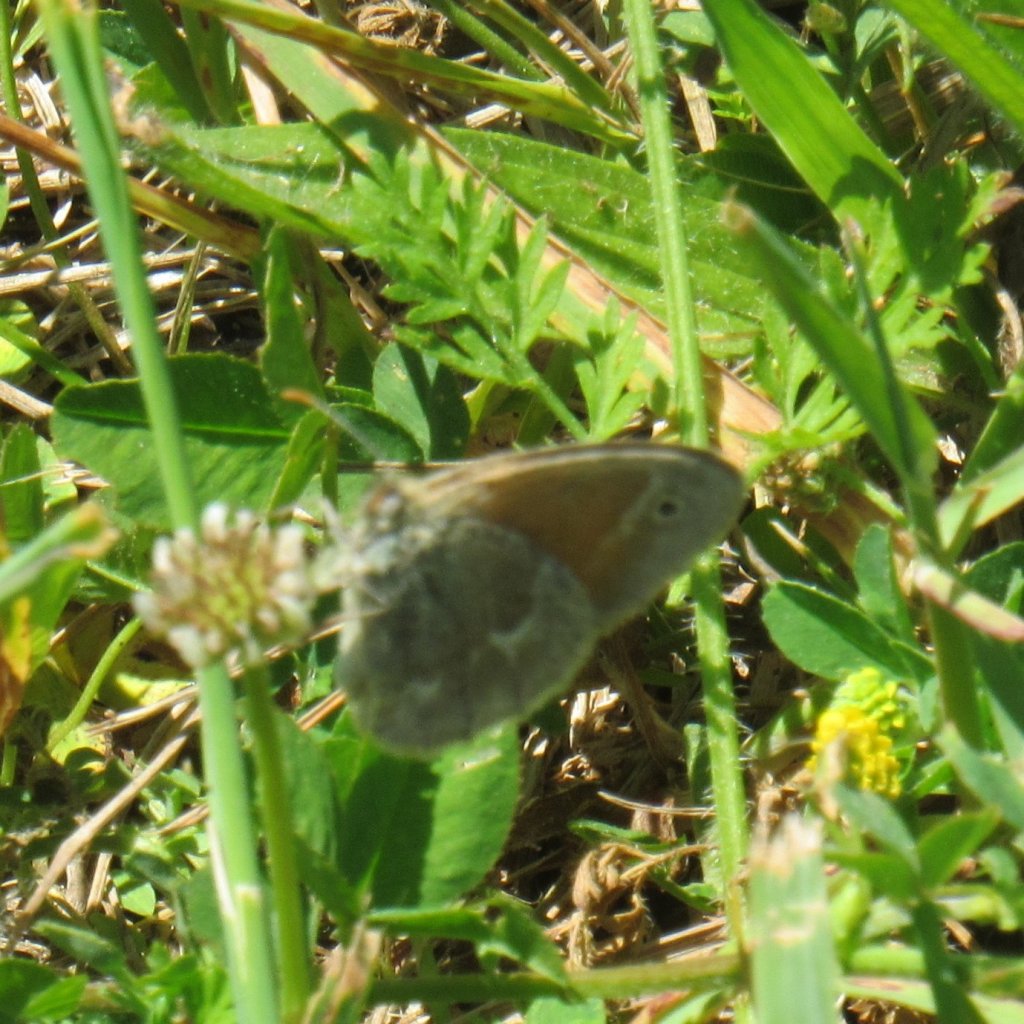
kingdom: Animalia
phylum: Arthropoda
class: Insecta
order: Lepidoptera
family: Nymphalidae
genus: Coenonympha
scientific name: Coenonympha tullia
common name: Large Heath
